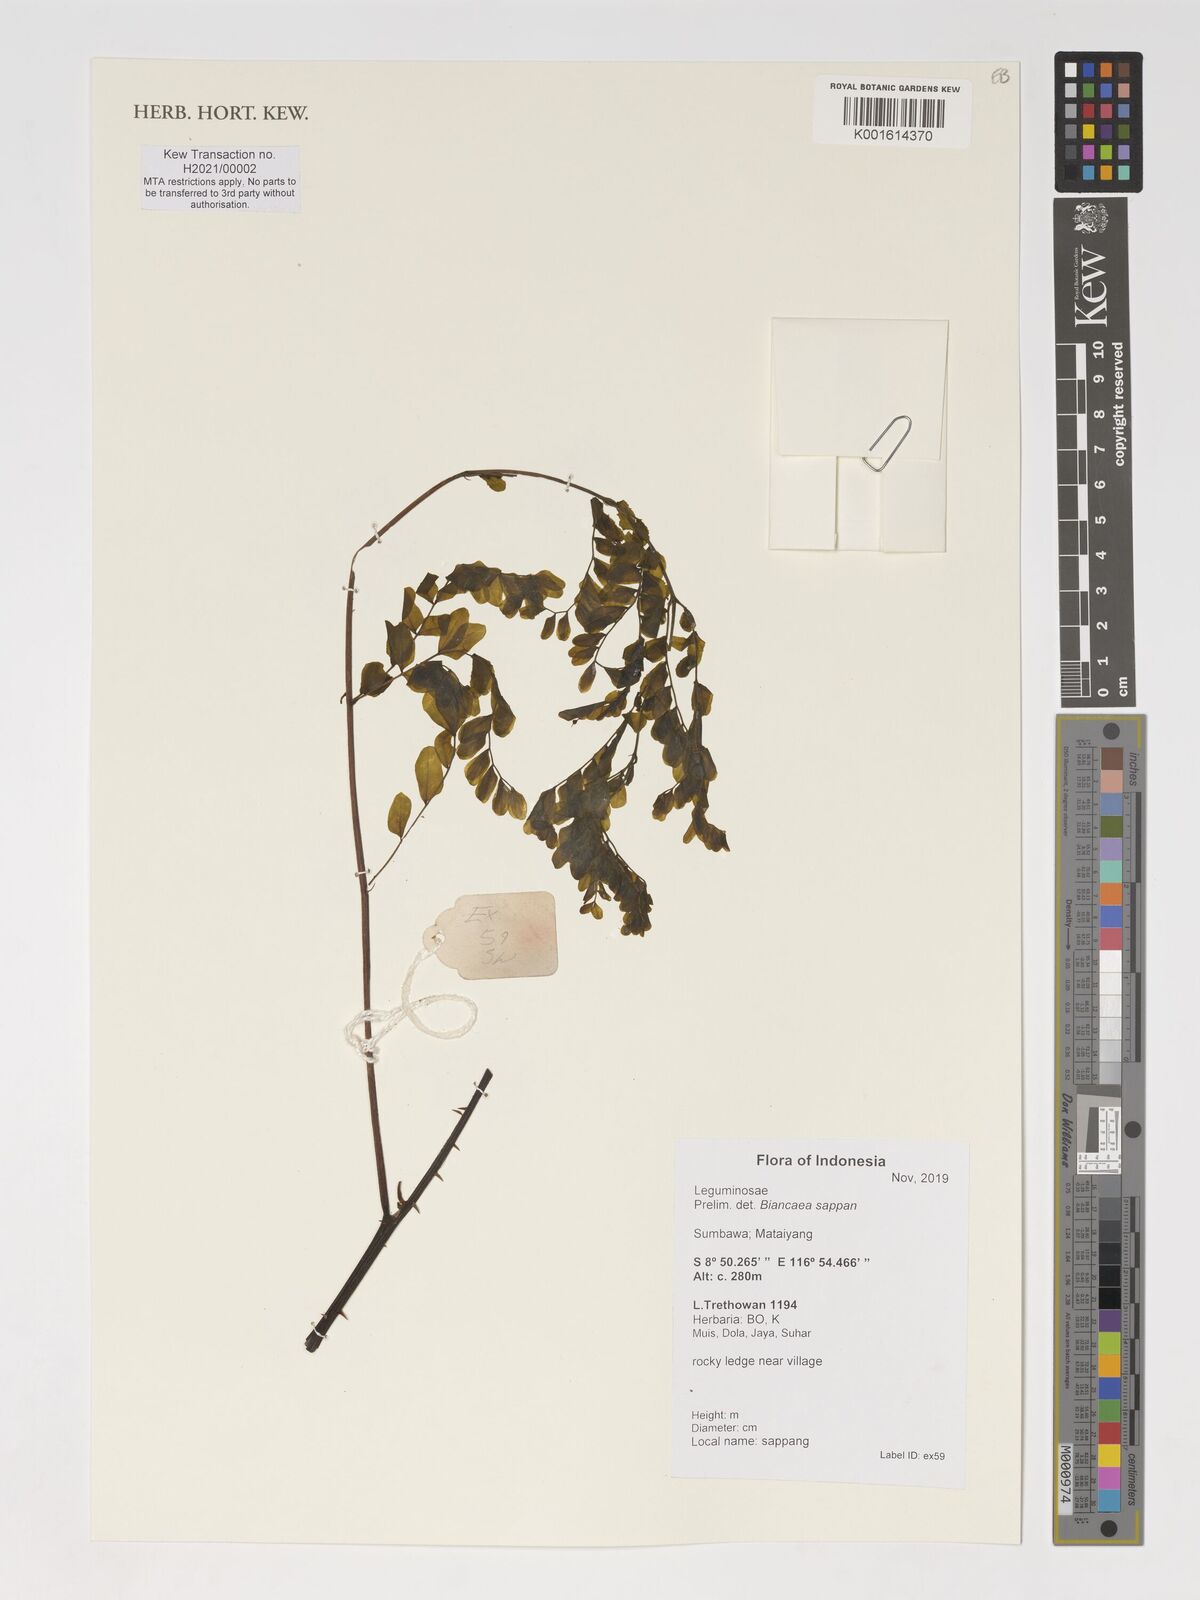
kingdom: Plantae
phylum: Tracheophyta
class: Magnoliopsida
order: Fabales
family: Fabaceae
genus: Biancaea
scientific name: Biancaea sappan
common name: Sappan
